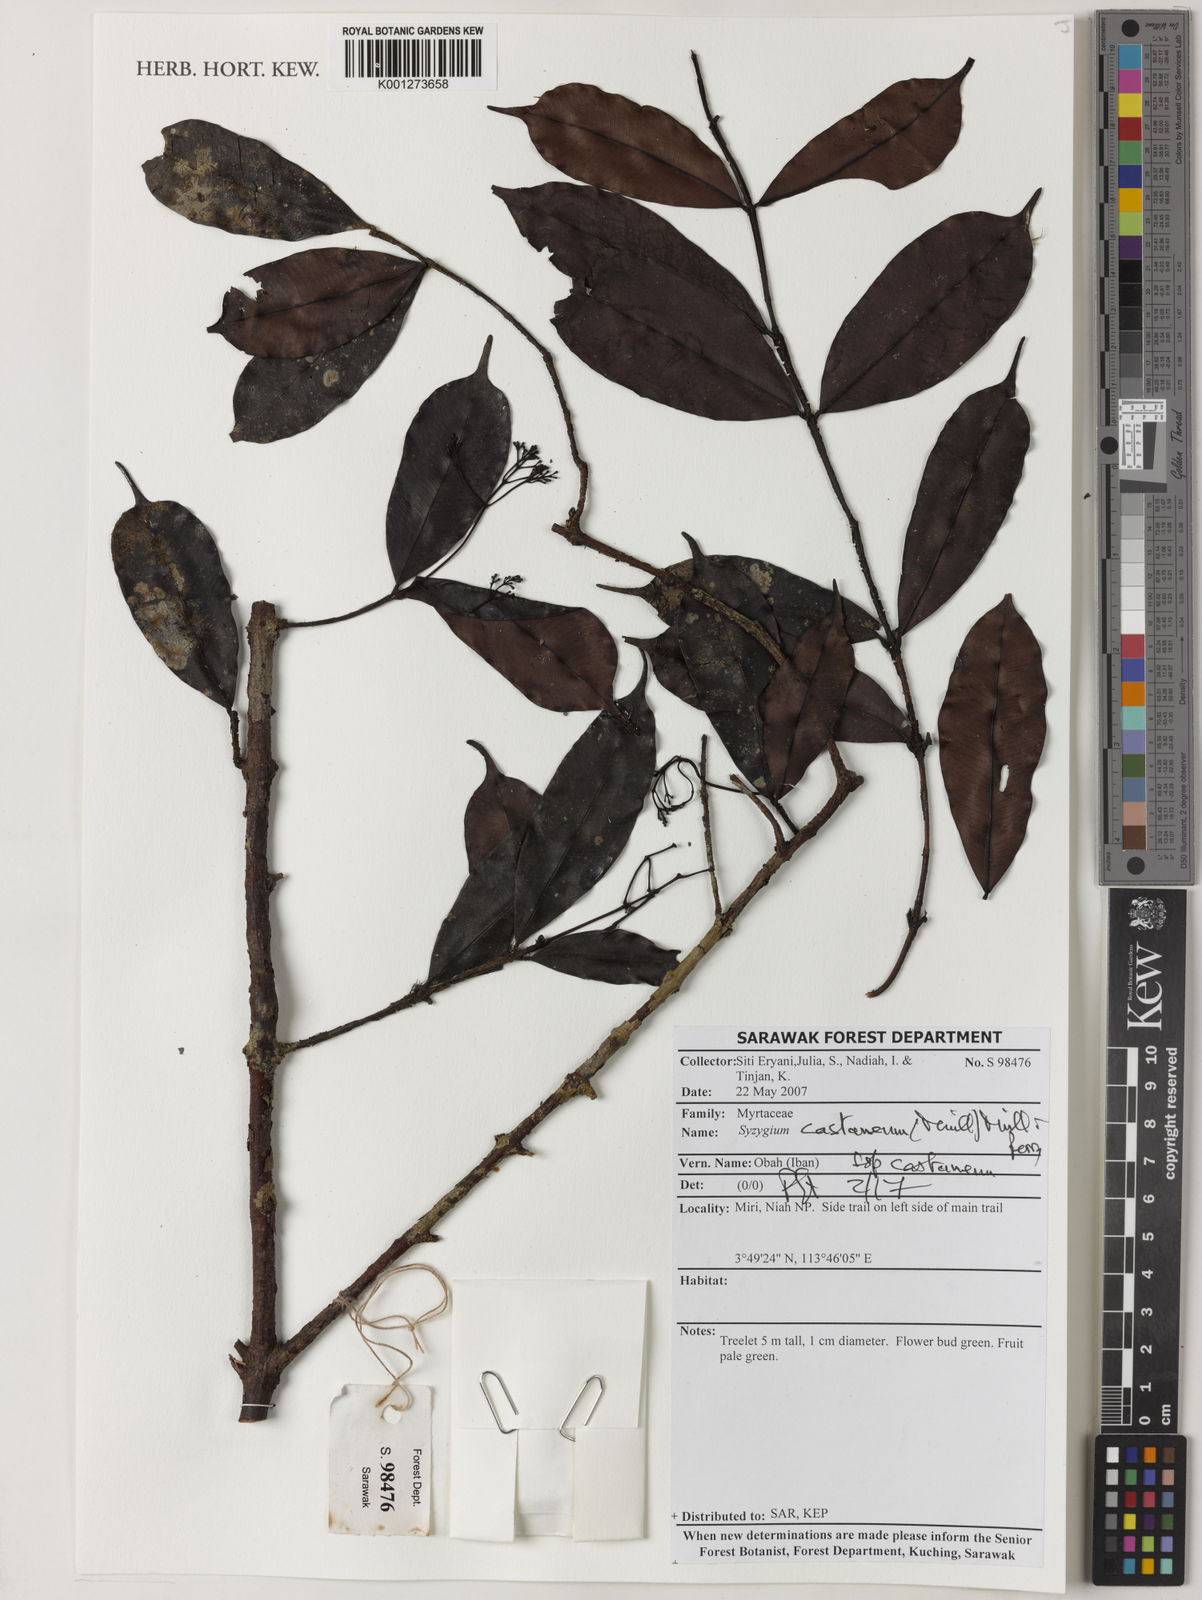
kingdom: Plantae
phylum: Tracheophyta
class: Magnoliopsida
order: Myrtales
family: Myrtaceae
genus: Syzygium
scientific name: Syzygium castaneum
